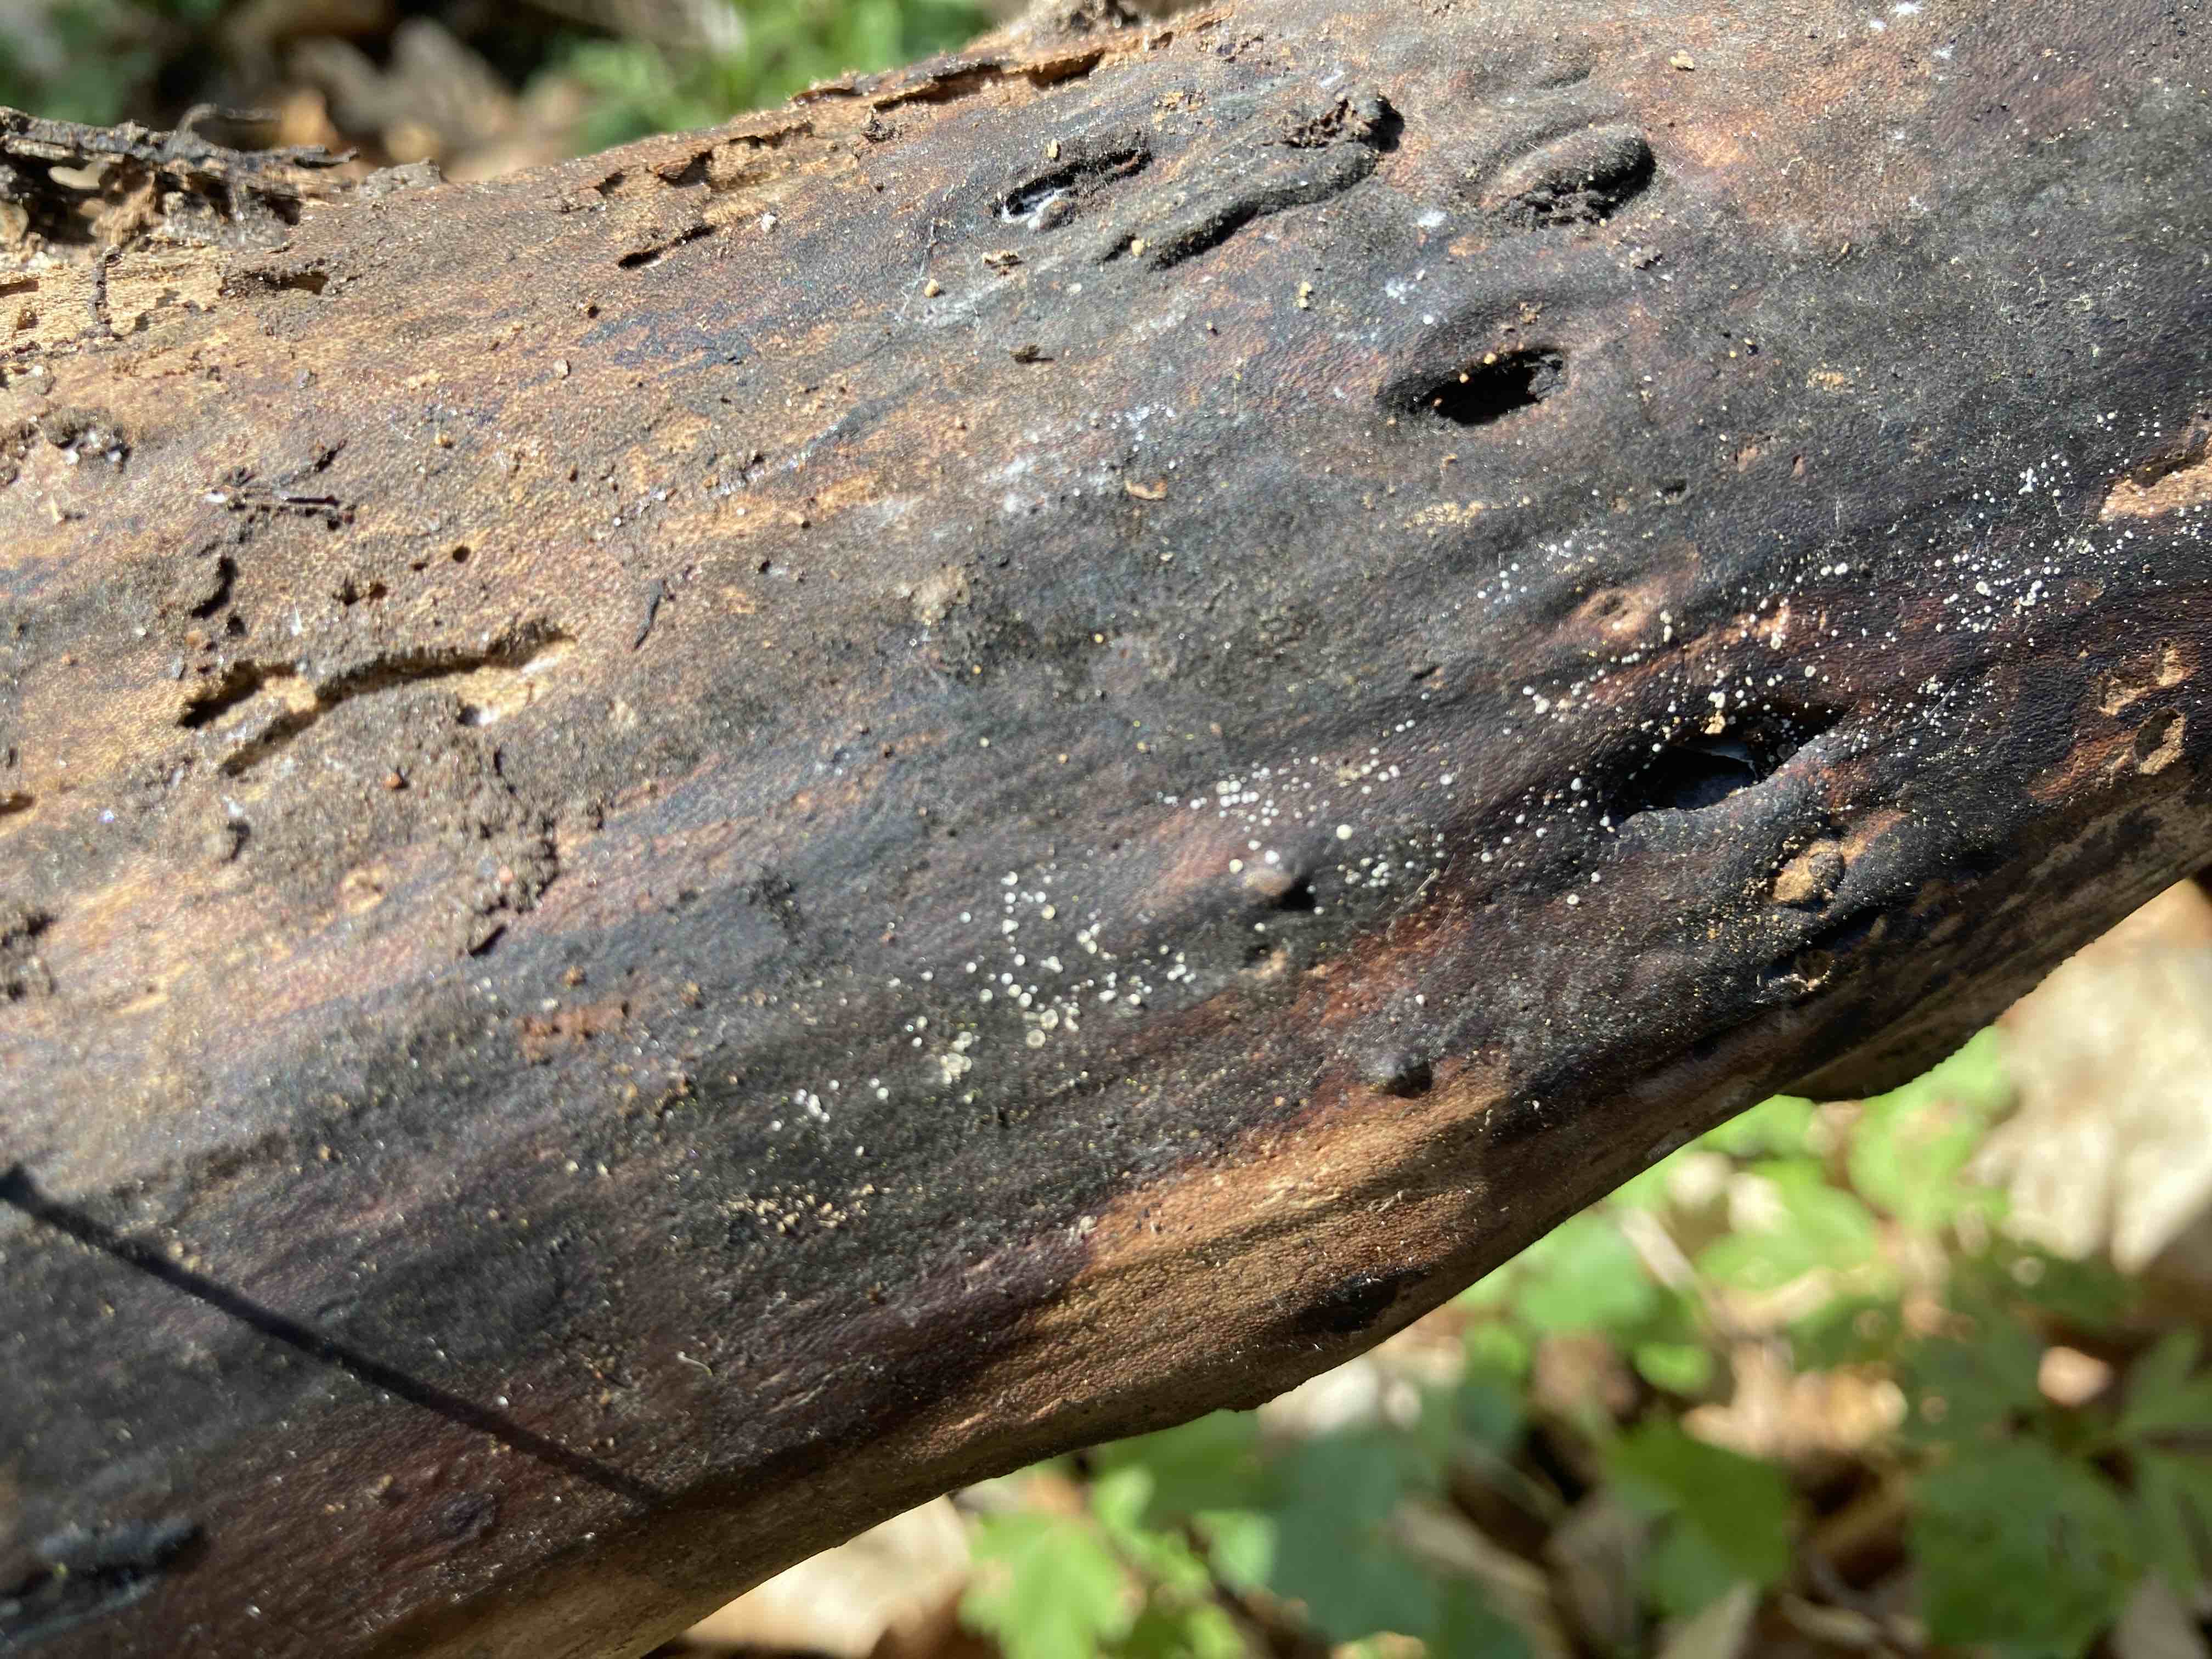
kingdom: Fungi
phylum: Ascomycota
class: Leotiomycetes
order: Helotiales
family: Hyaloscyphaceae
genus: Protounguicularia
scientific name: Protounguicularia transiens
